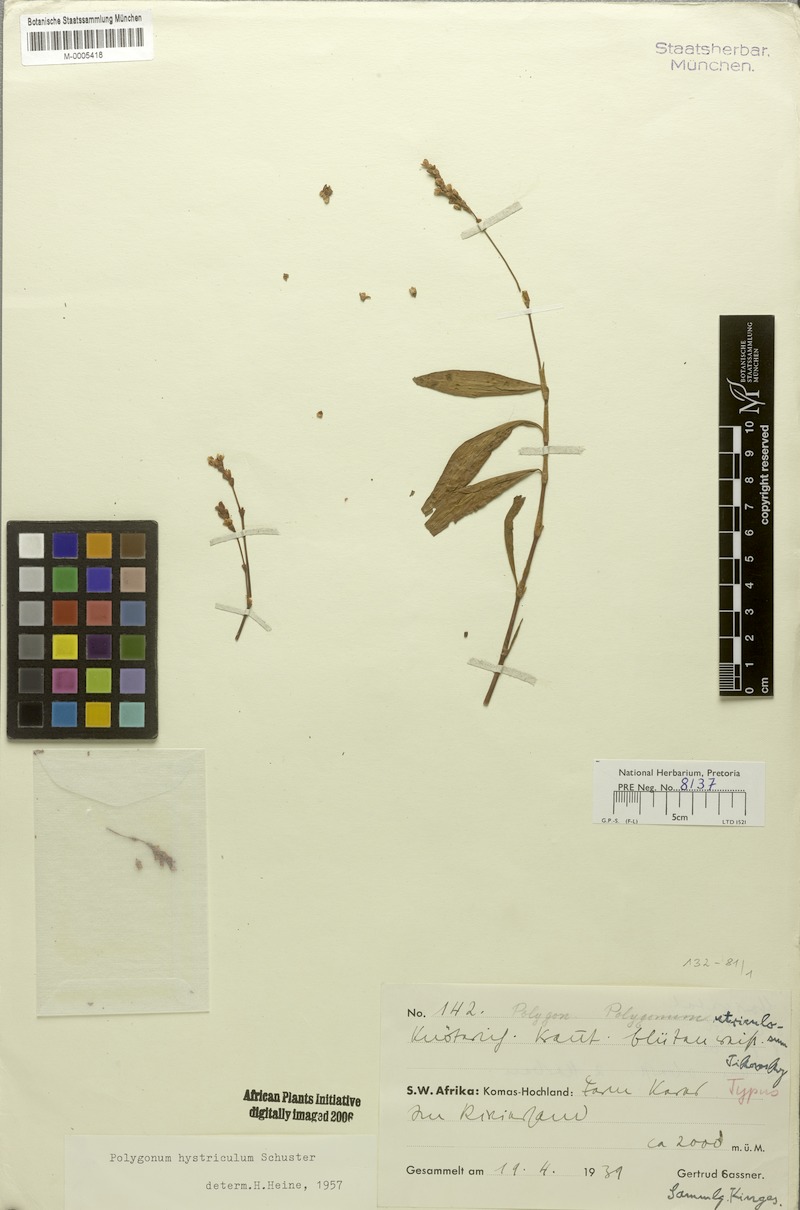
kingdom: Plantae
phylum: Tracheophyta
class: Magnoliopsida
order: Caryophyllales
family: Polygonaceae
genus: Persicaria
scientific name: Persicaria hystricula
